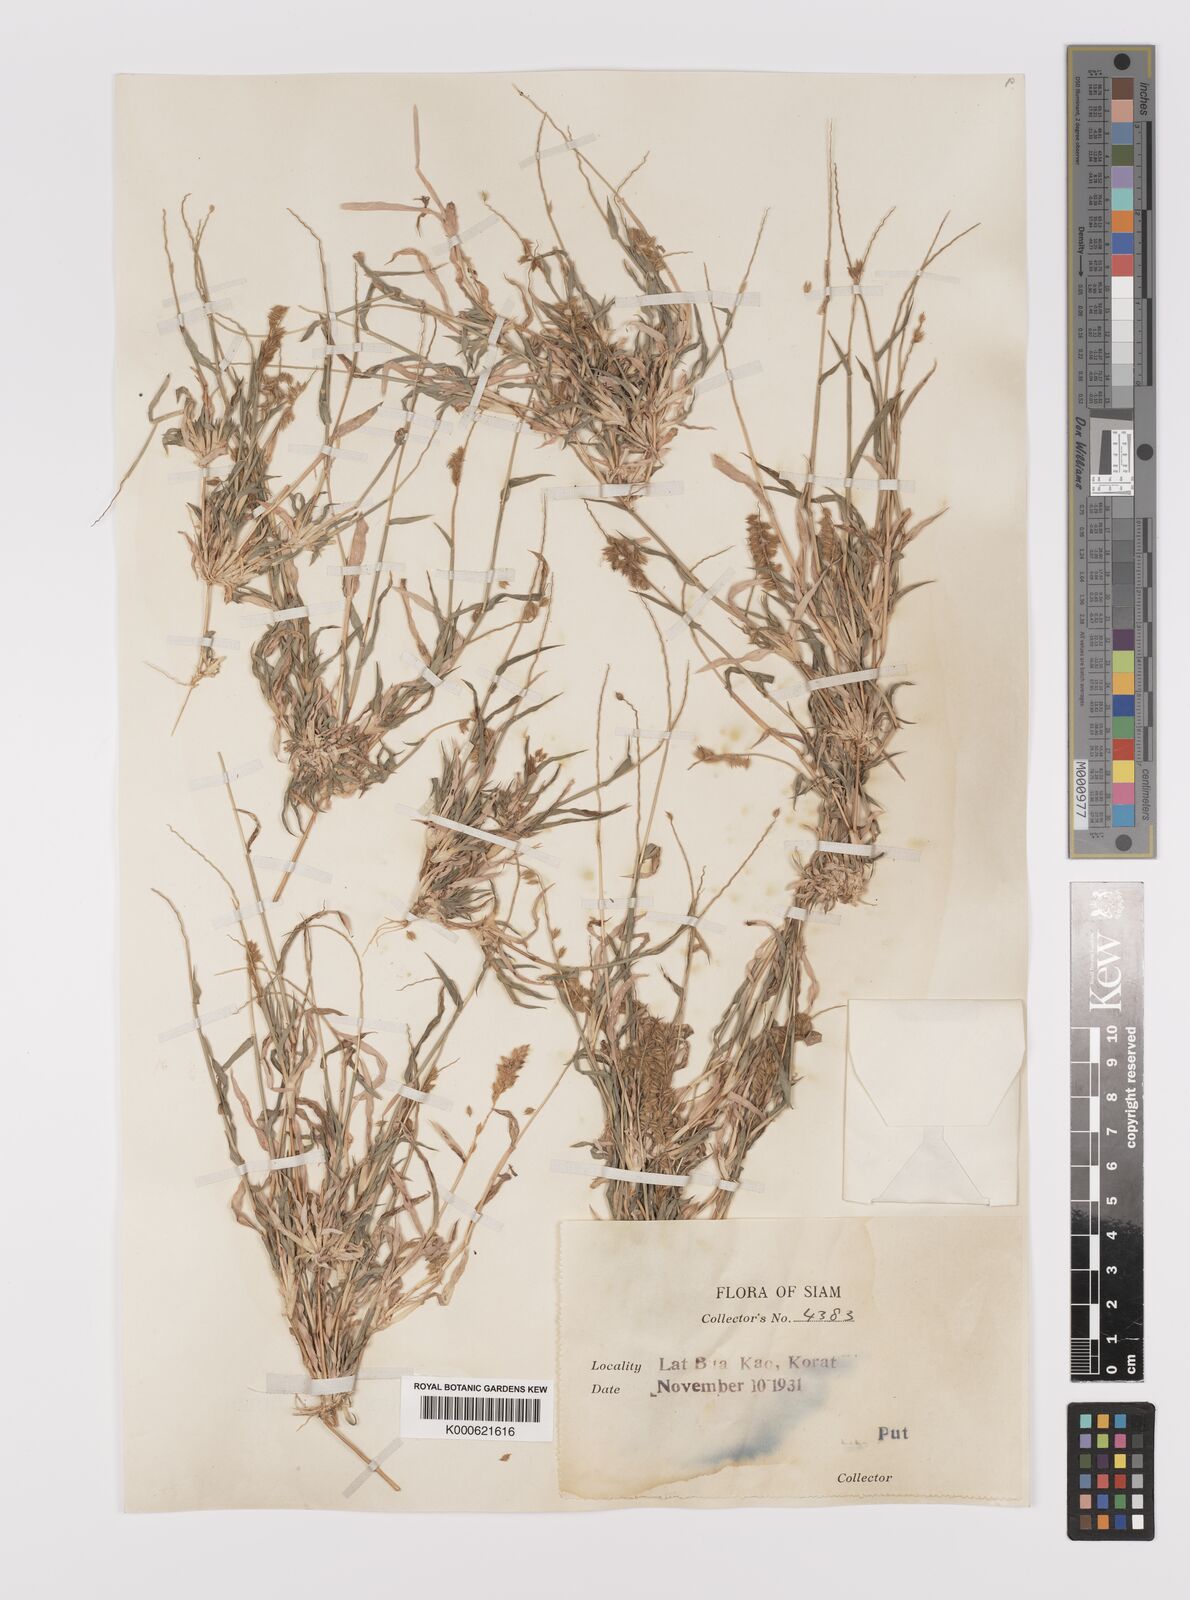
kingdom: Plantae
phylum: Tracheophyta
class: Liliopsida
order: Poales
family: Poaceae
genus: Tragus
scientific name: Tragus mongolorum
